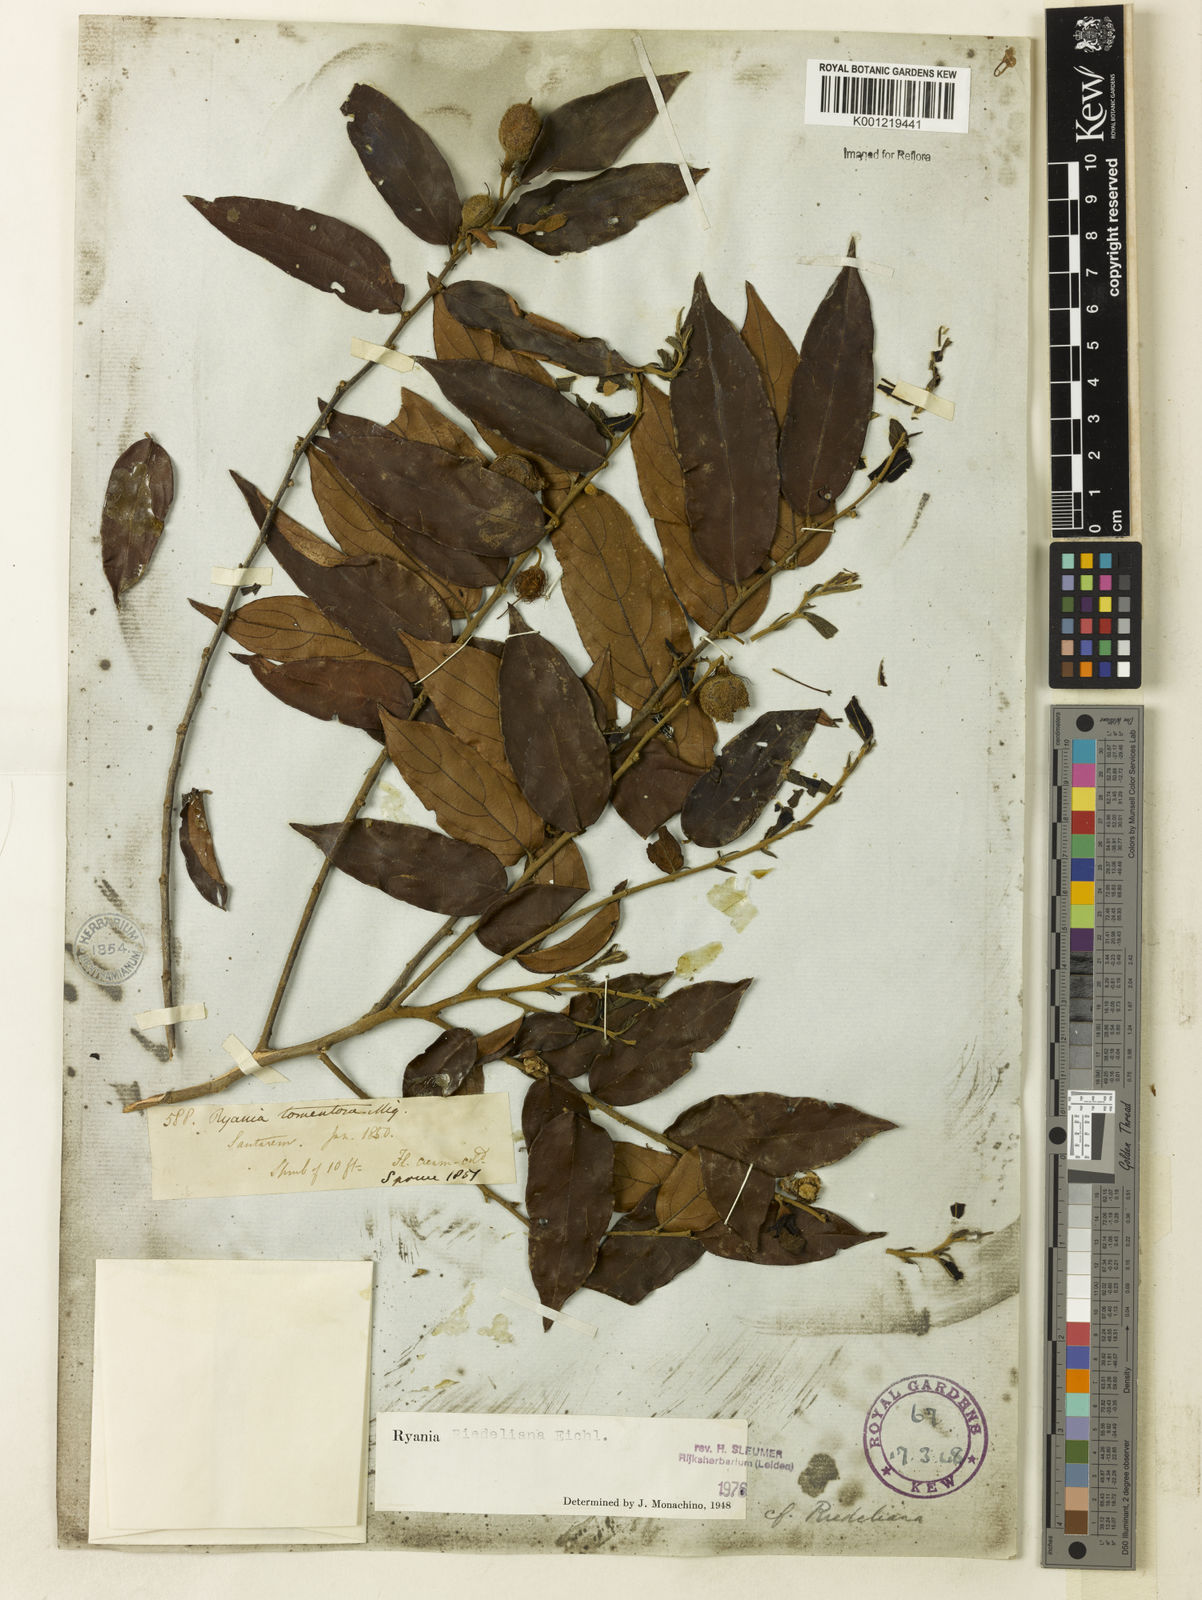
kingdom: Plantae
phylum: Tracheophyta
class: Magnoliopsida
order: Malpighiales
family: Salicaceae
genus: Ryania
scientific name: Ryania riedeliana
